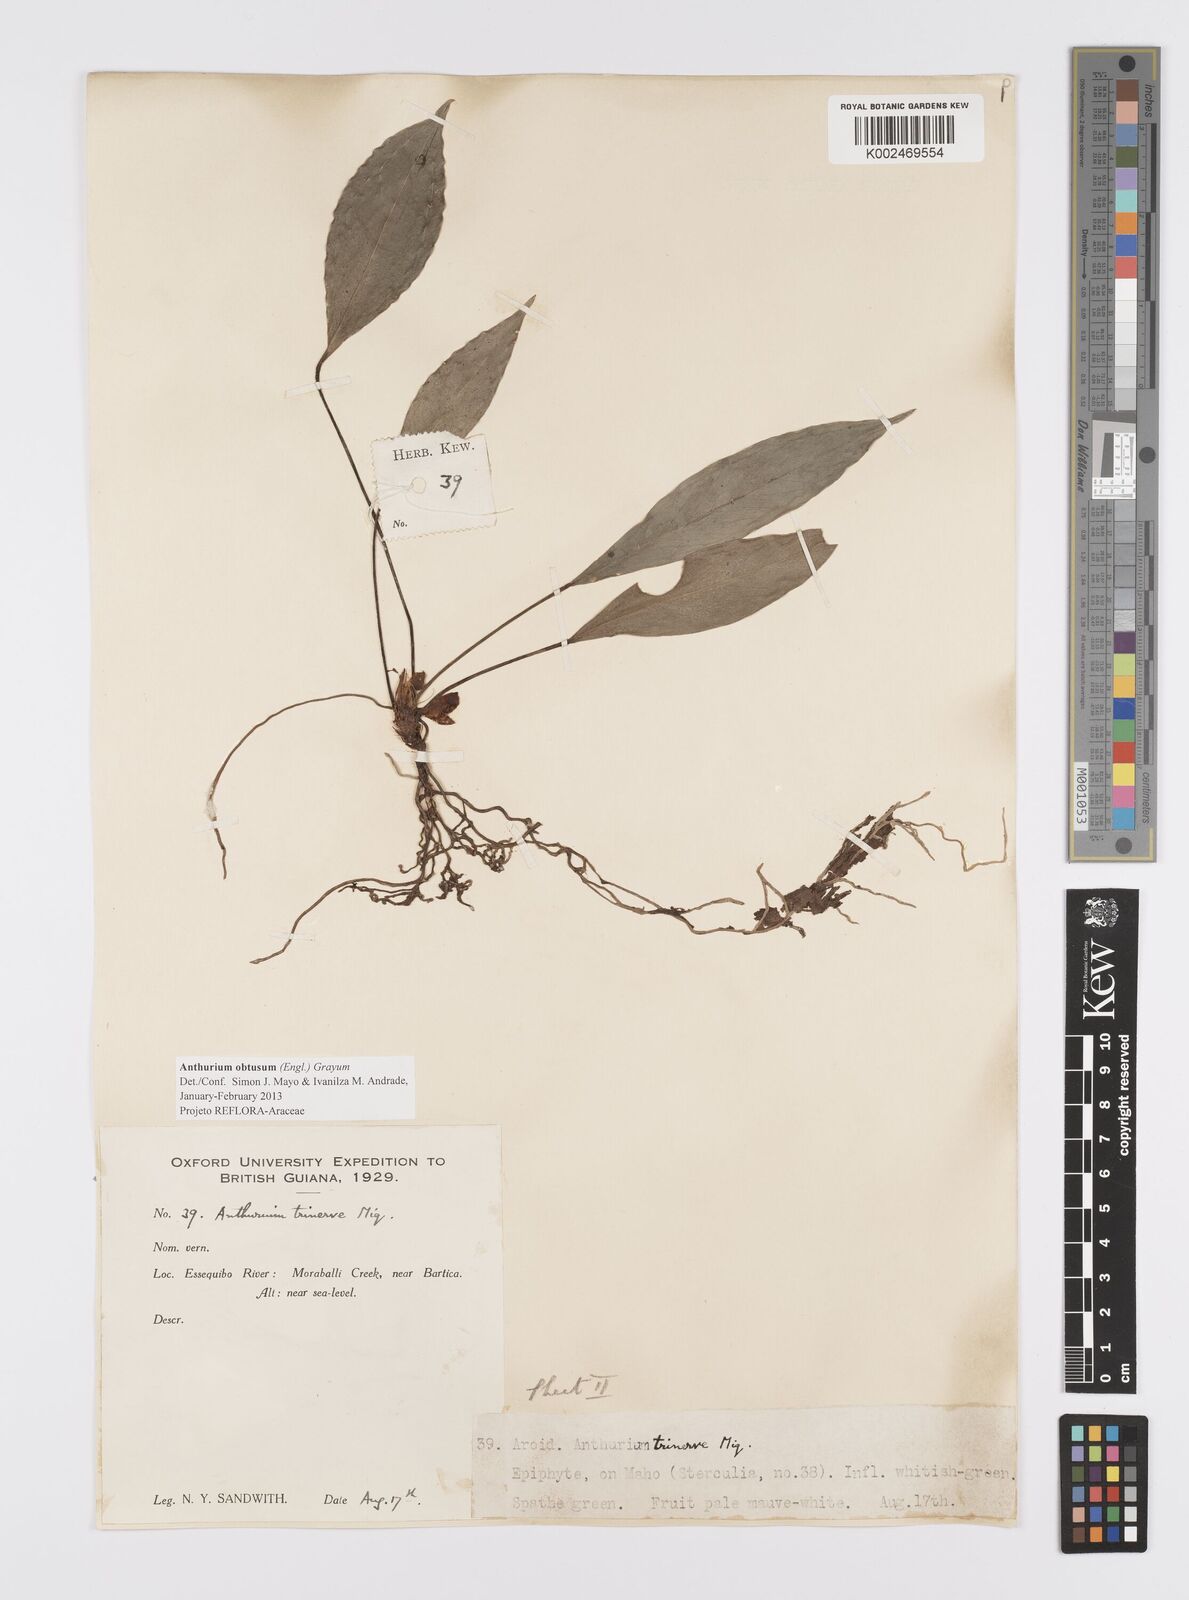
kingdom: Plantae
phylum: Tracheophyta
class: Liliopsida
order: Alismatales
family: Araceae
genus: Anthurium
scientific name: Anthurium obtusum
